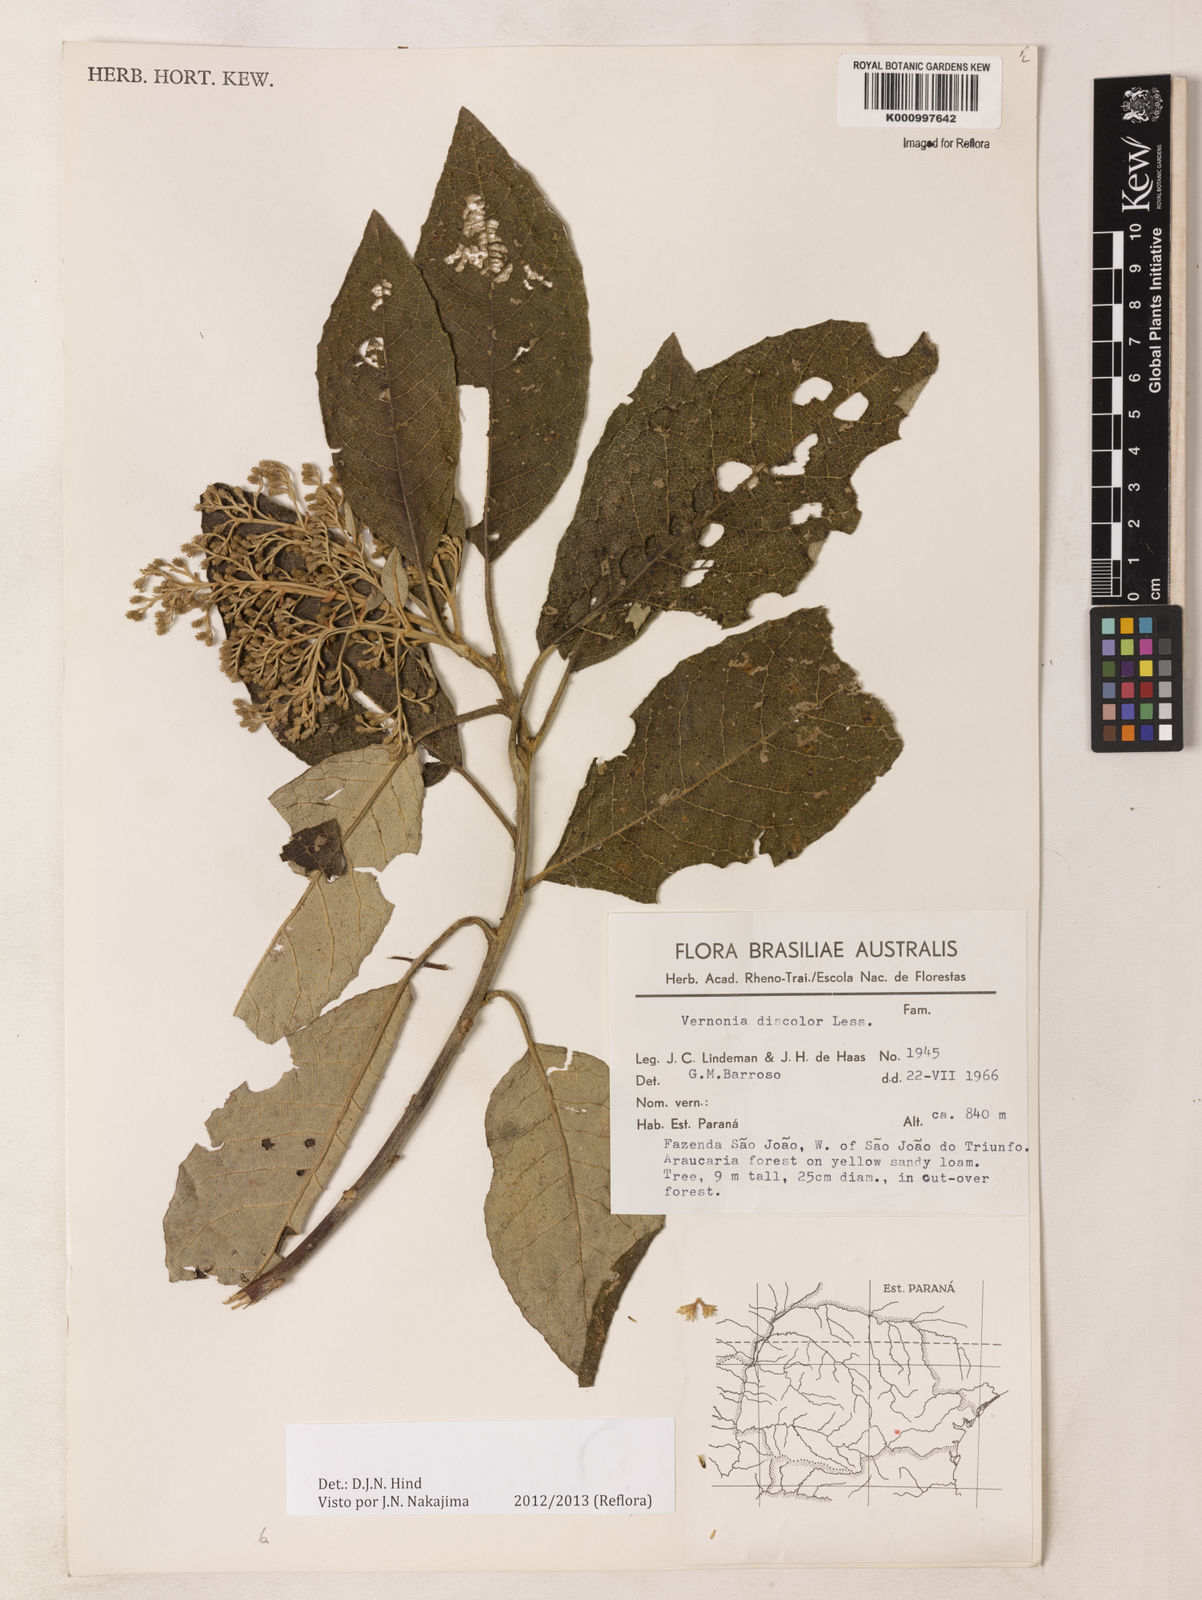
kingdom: Plantae
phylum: Tracheophyta
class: Magnoliopsida
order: Asterales
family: Asteraceae
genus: Vernonanthura
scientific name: Vernonanthura discolor
